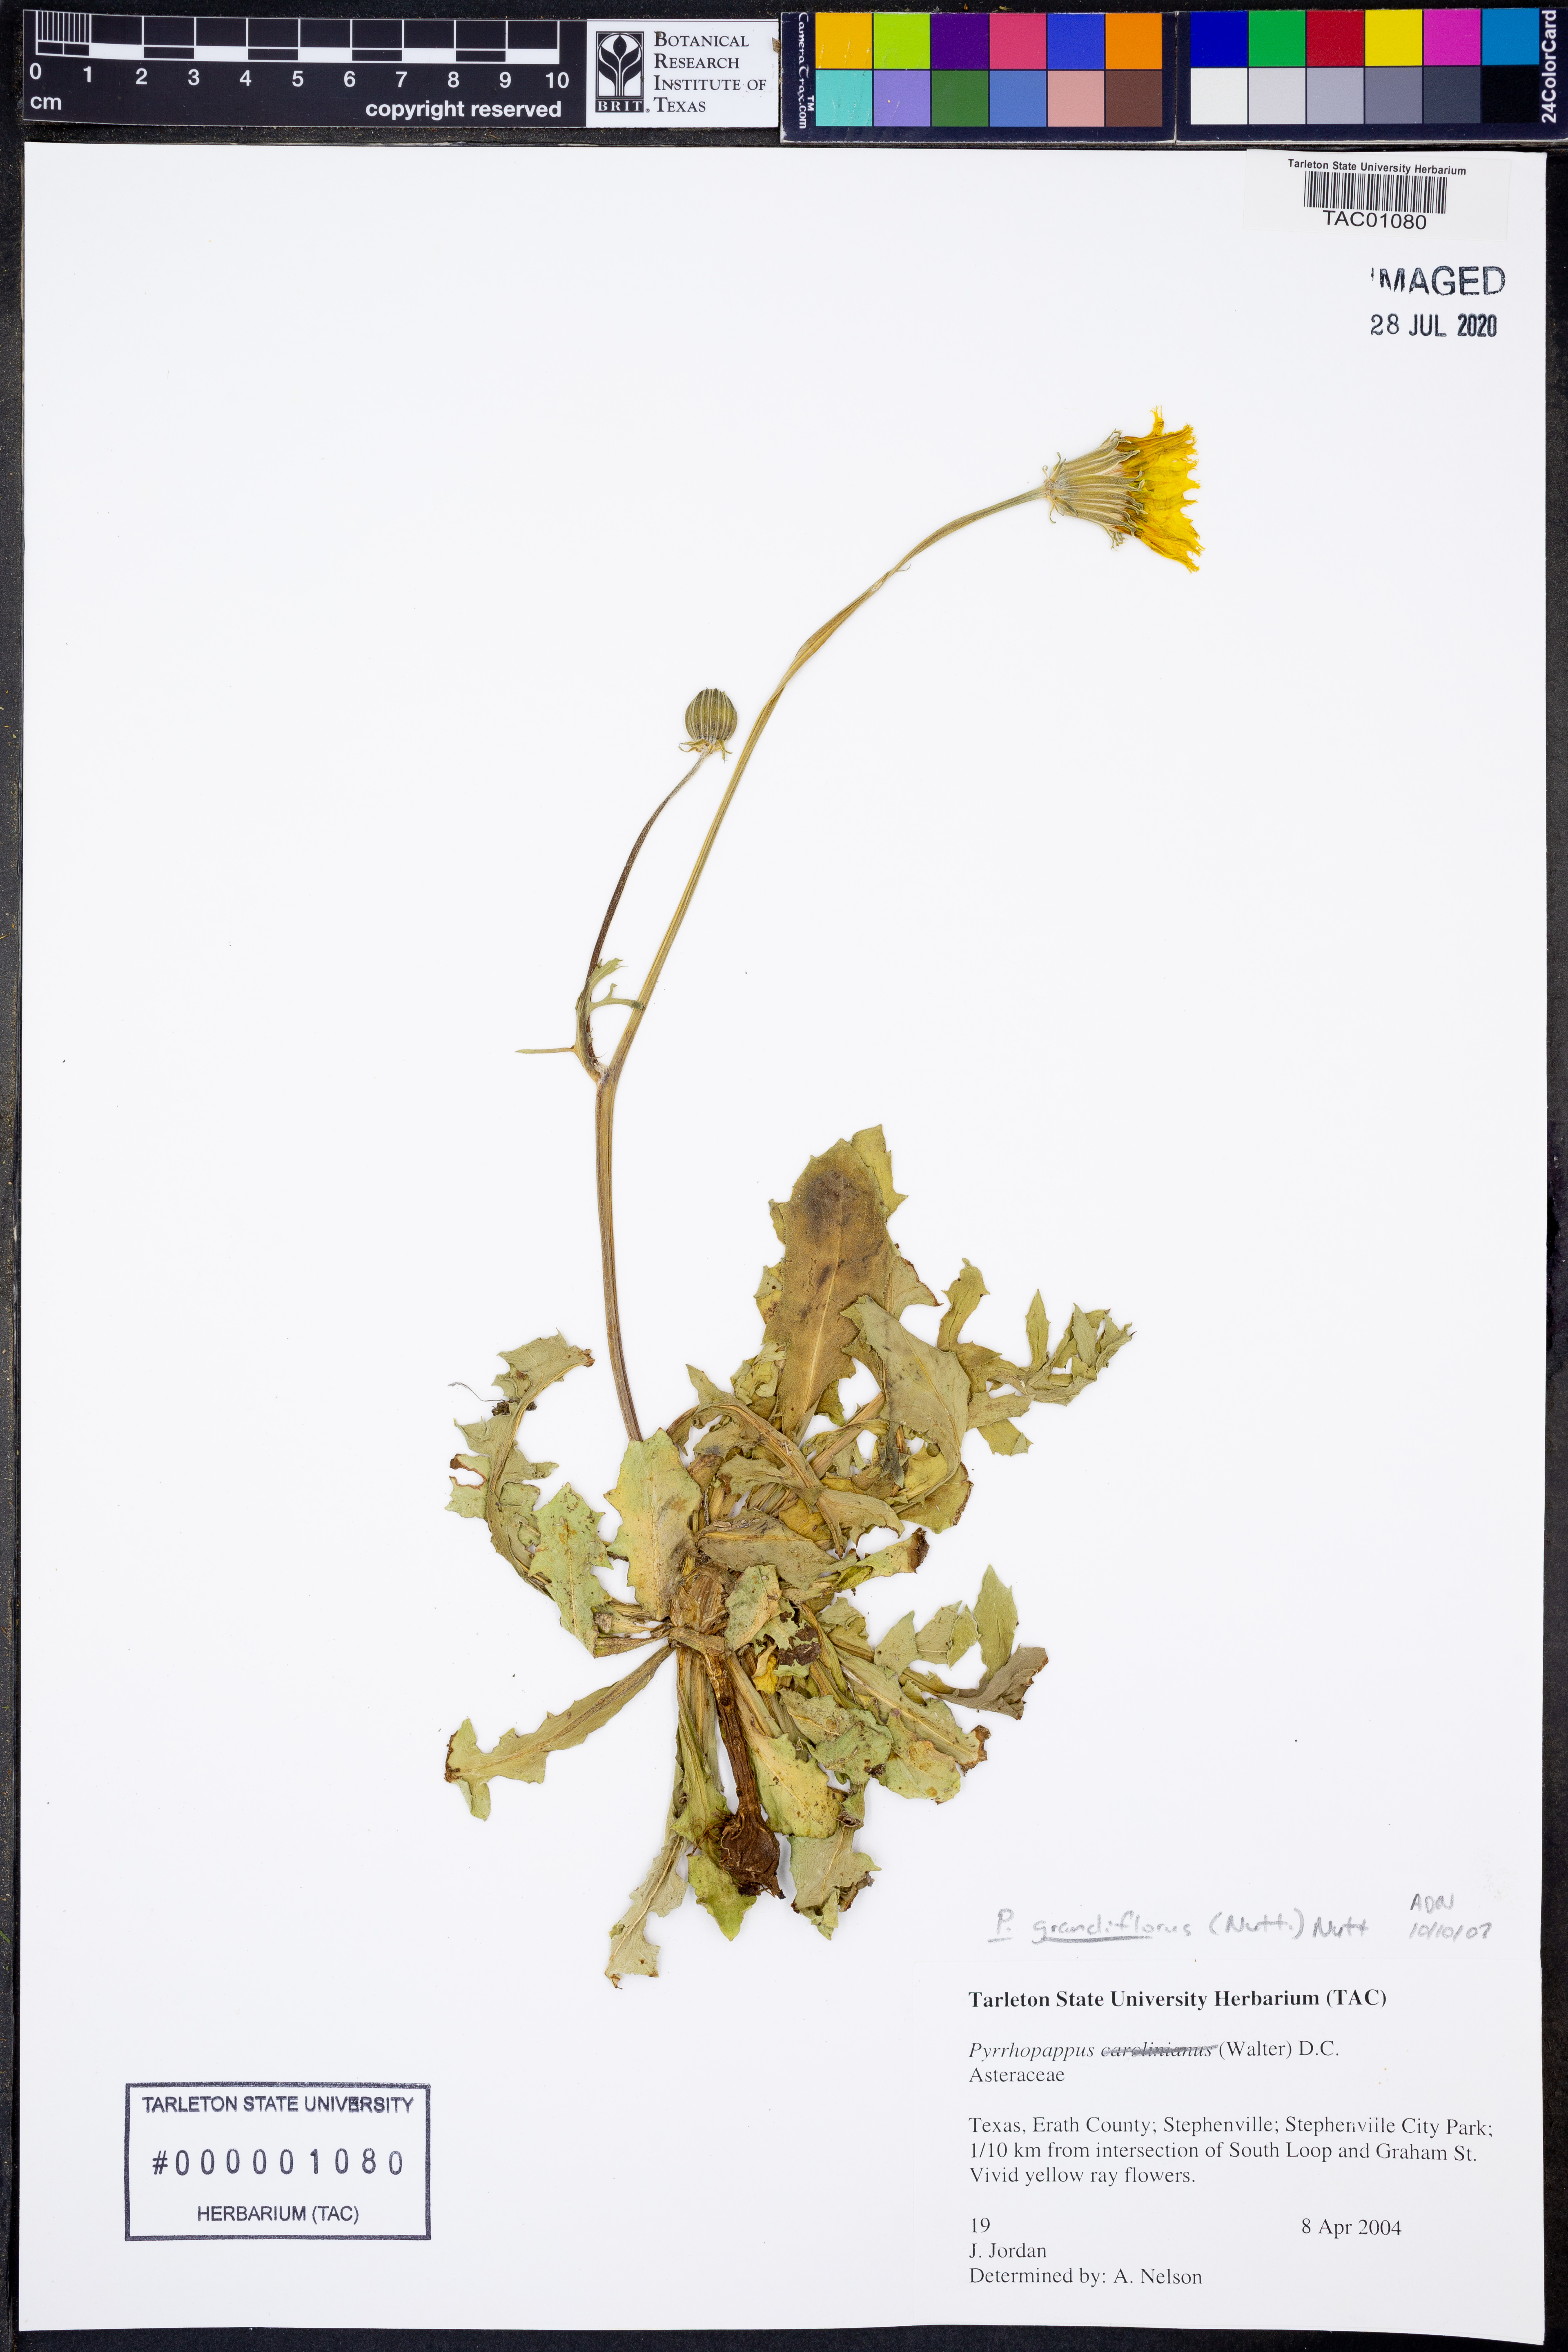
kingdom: Plantae
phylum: Tracheophyta
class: Magnoliopsida
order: Asterales
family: Asteraceae
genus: Pyrrhopappus
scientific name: Pyrrhopappus grandiflorus
